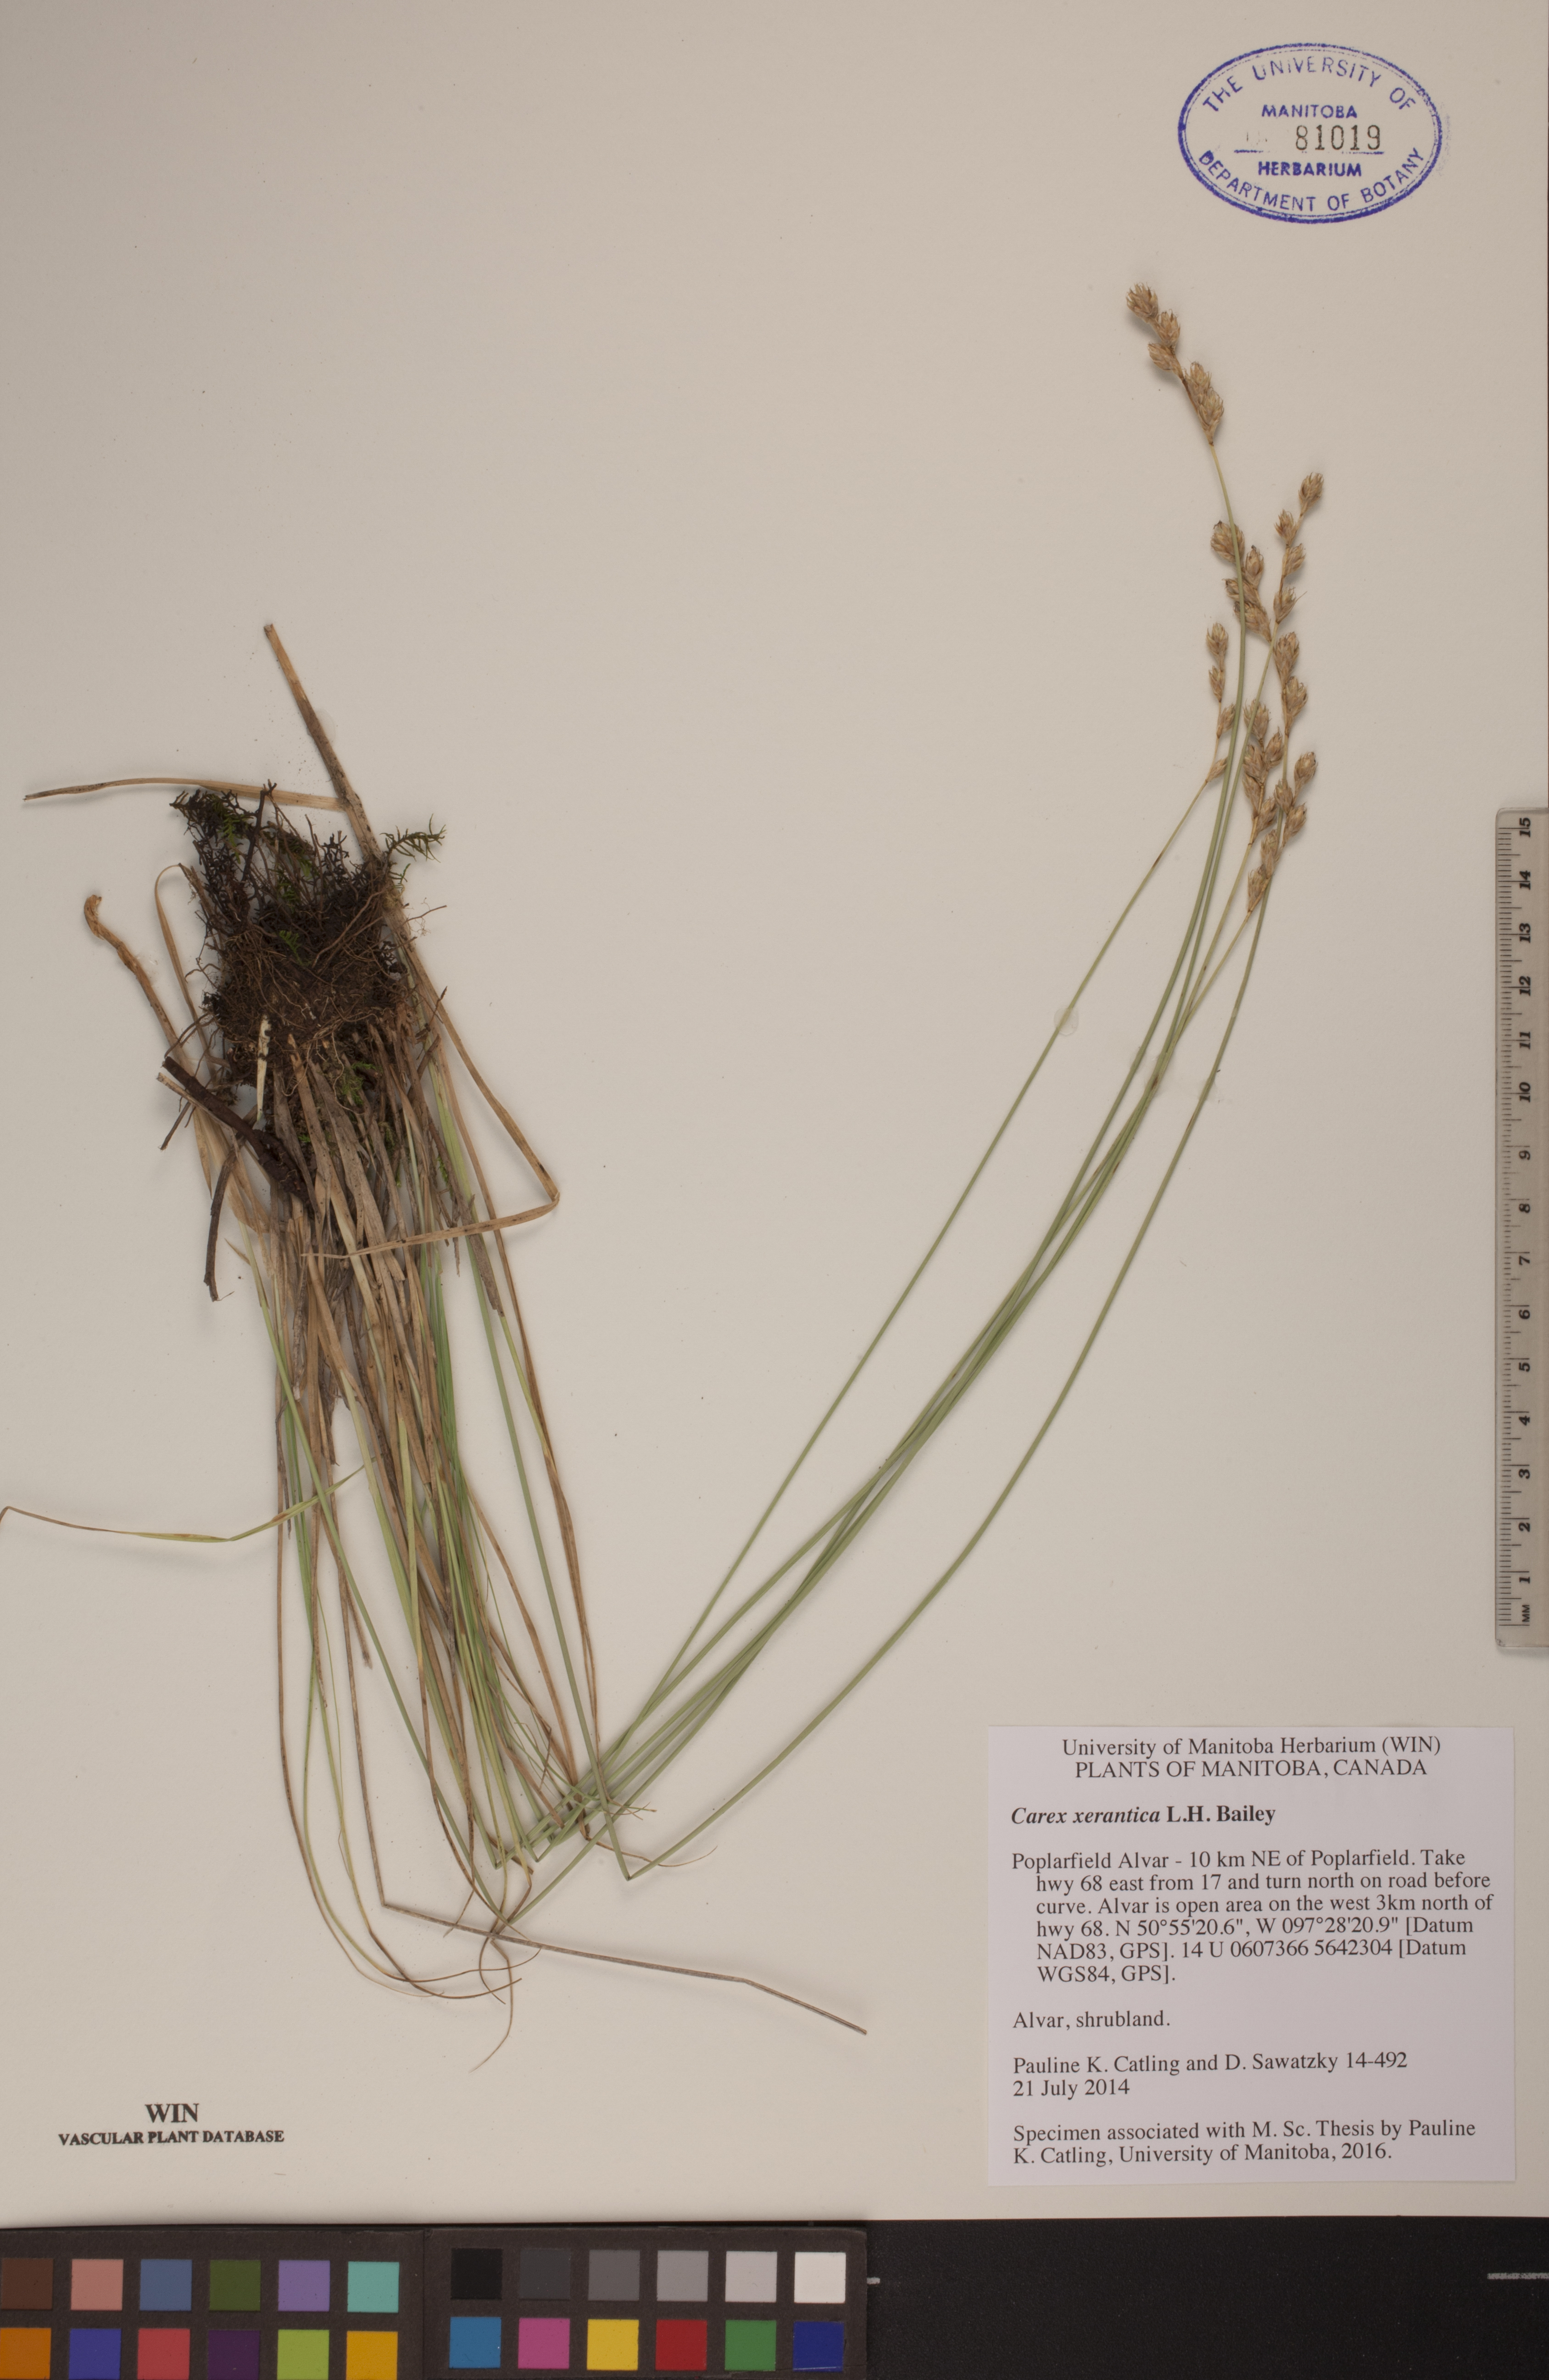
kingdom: Plantae
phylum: Tracheophyta
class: Liliopsida
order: Poales
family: Cyperaceae
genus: Carex
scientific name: Carex xerantica
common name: Dryland sedge
